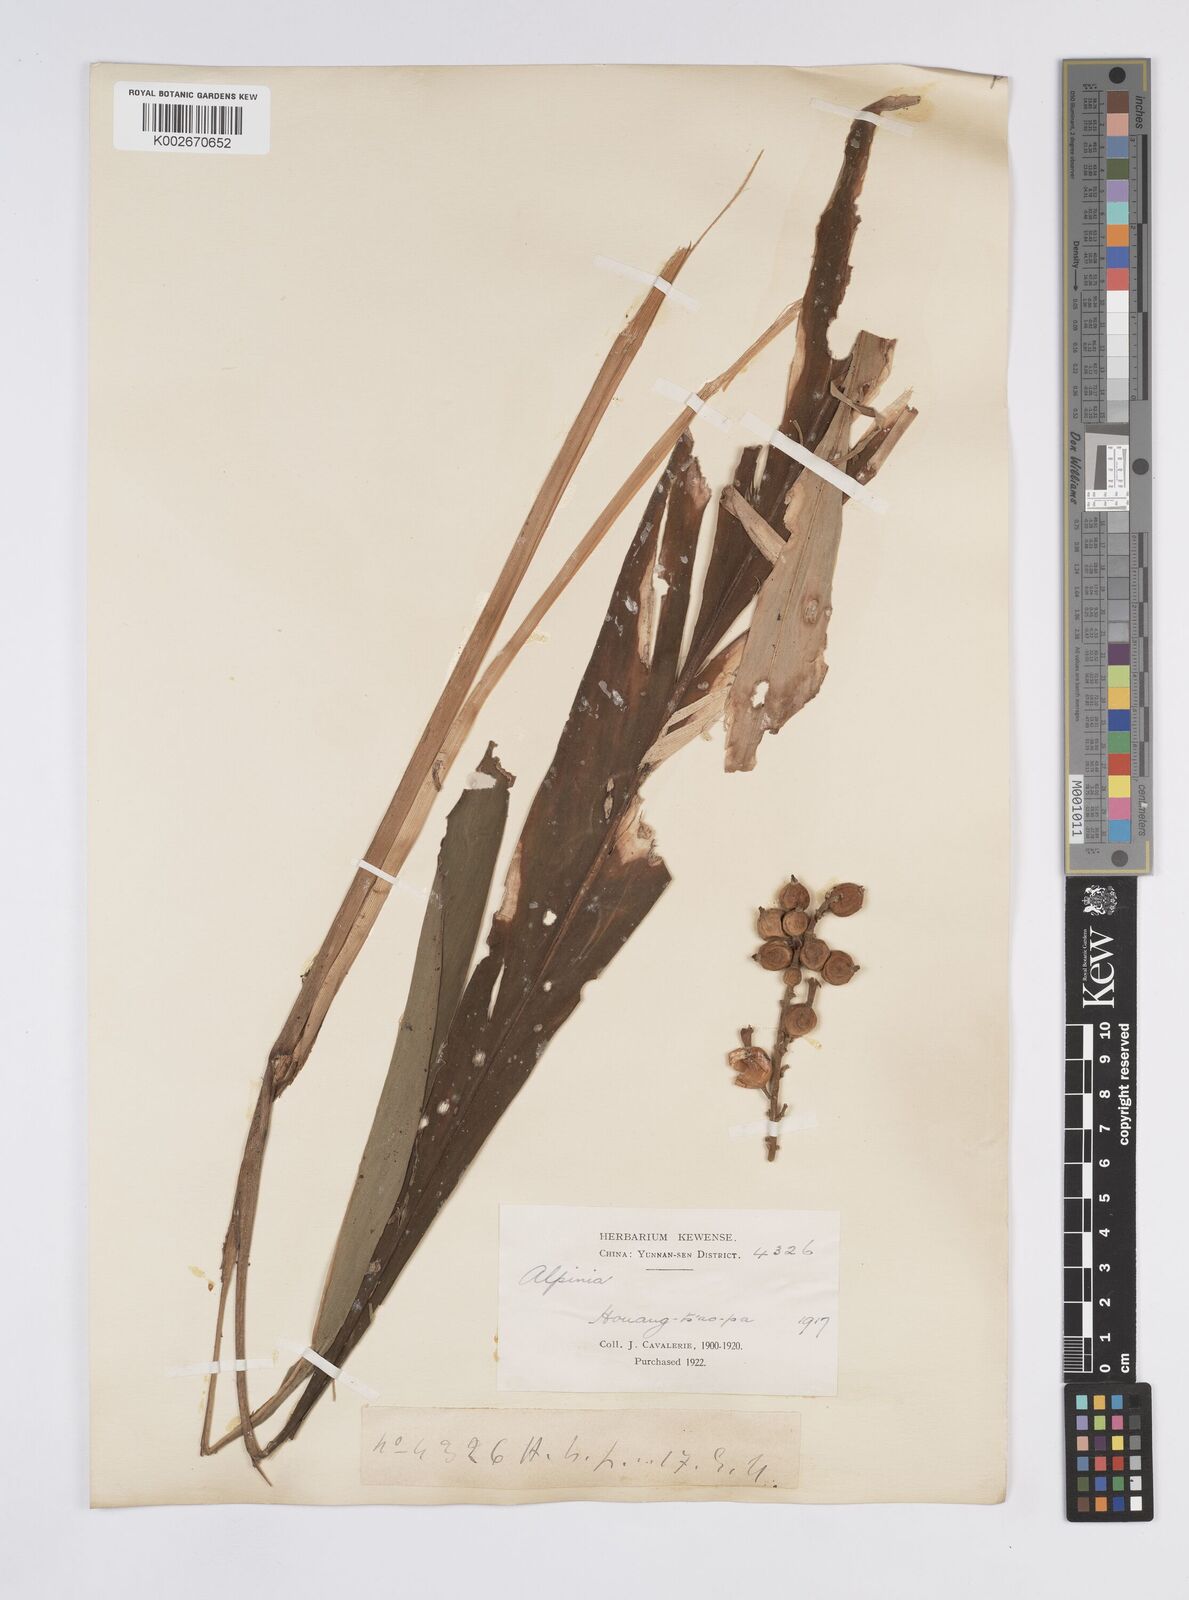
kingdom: Plantae
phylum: Tracheophyta
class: Liliopsida
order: Zingiberales
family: Zingiberaceae
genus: Alpinia
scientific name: Alpinia
